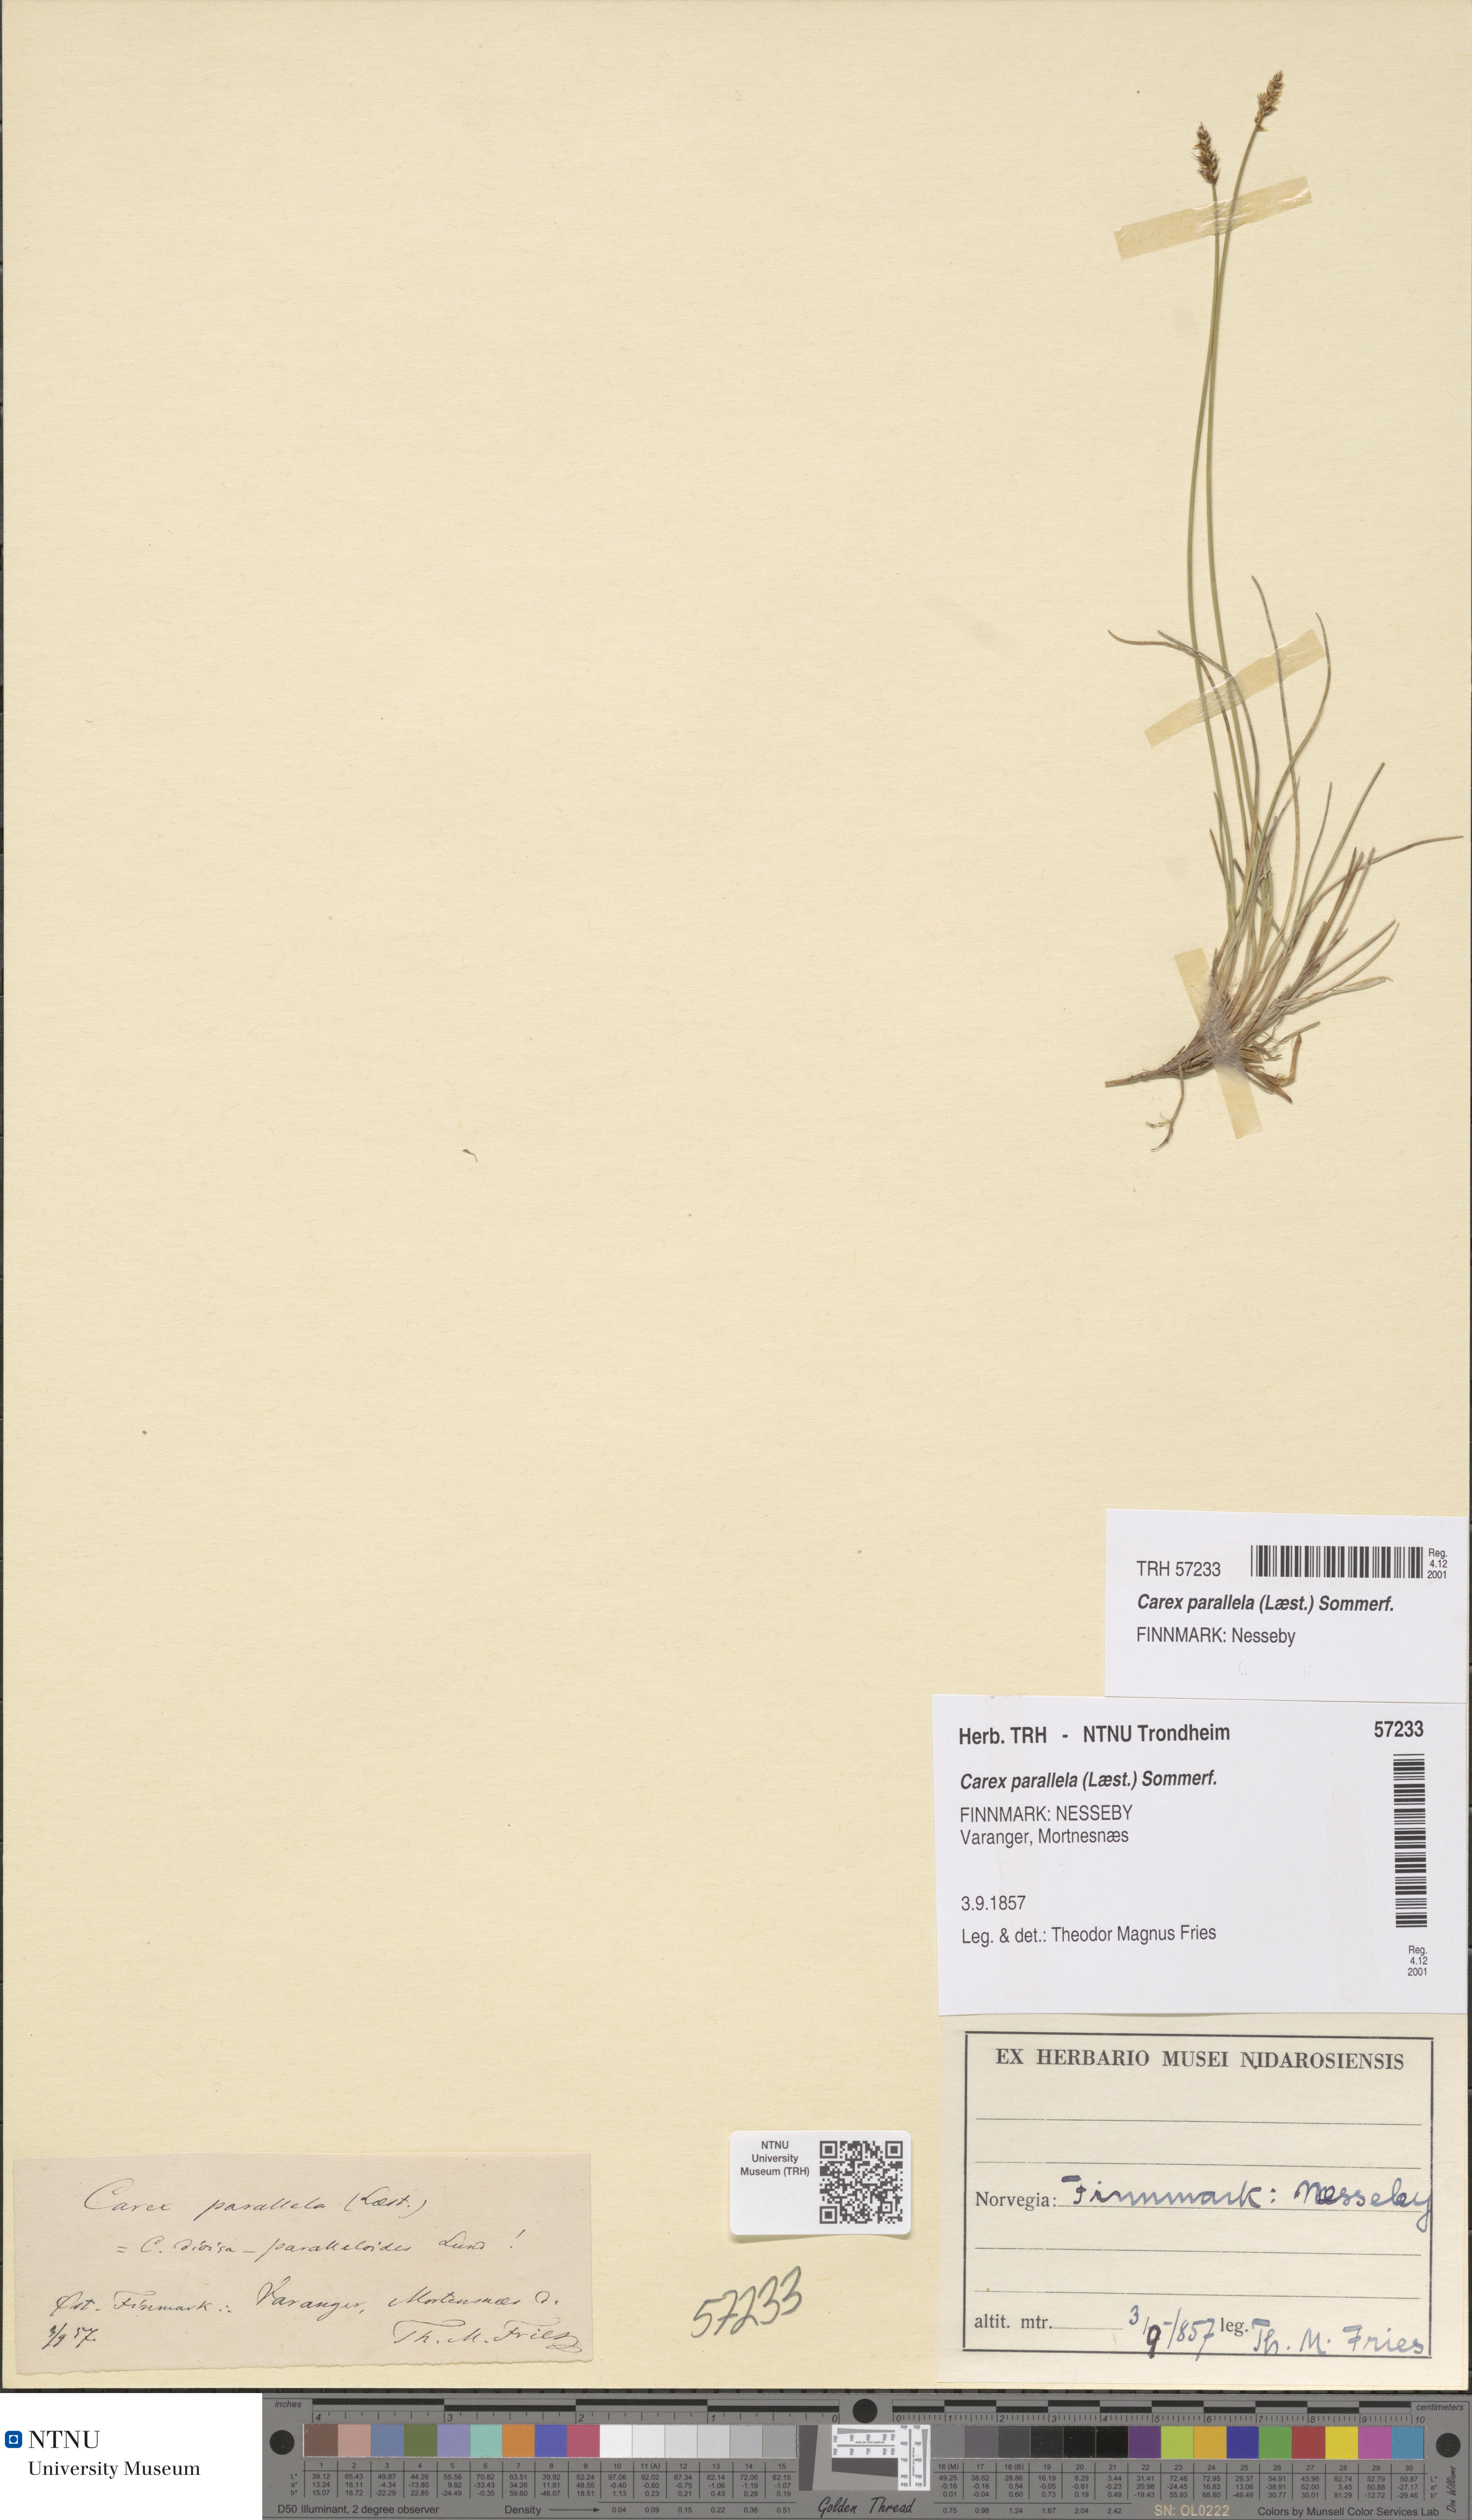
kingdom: Plantae
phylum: Tracheophyta
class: Liliopsida
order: Poales
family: Cyperaceae
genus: Carex
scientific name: Carex parallela
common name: Parallel sedge
